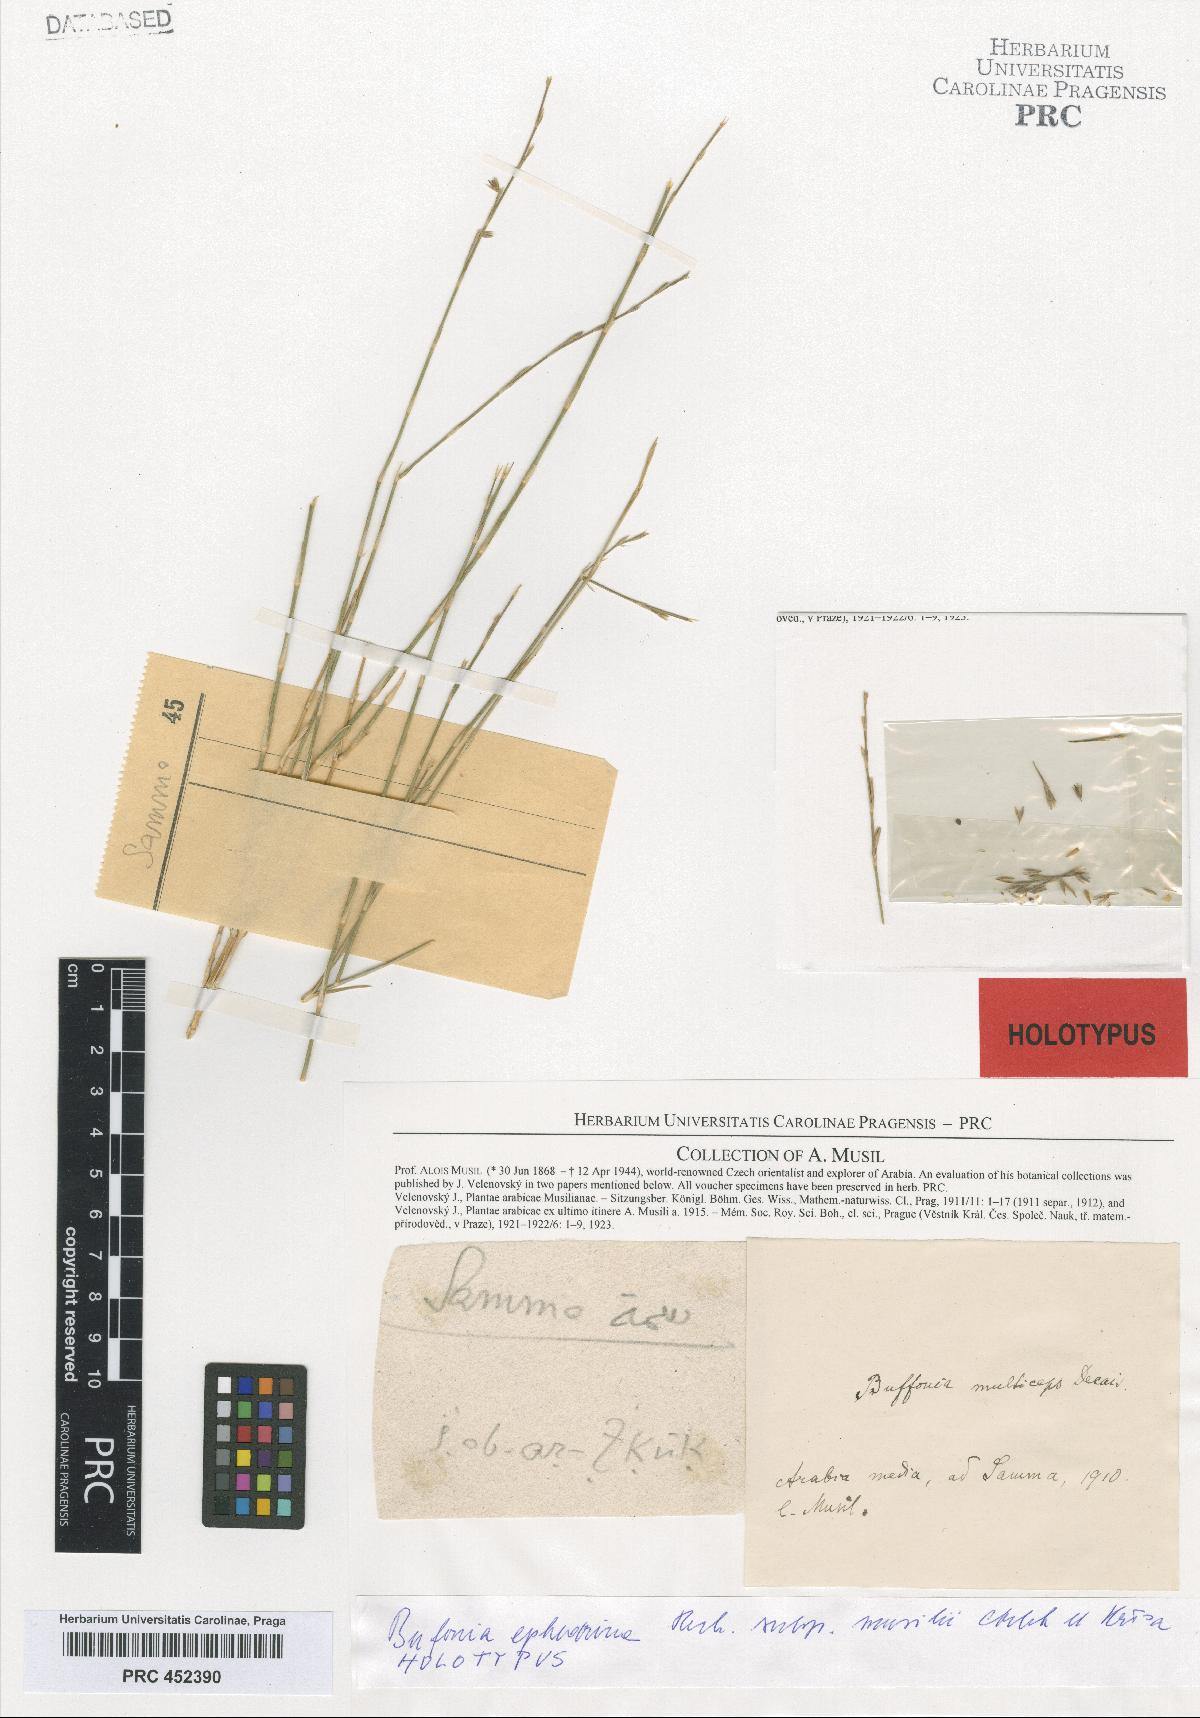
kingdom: Plantae
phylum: Tracheophyta
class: Magnoliopsida
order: Caryophyllales
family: Caryophyllaceae
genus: Bufonia
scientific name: Bufonia ephedrina
